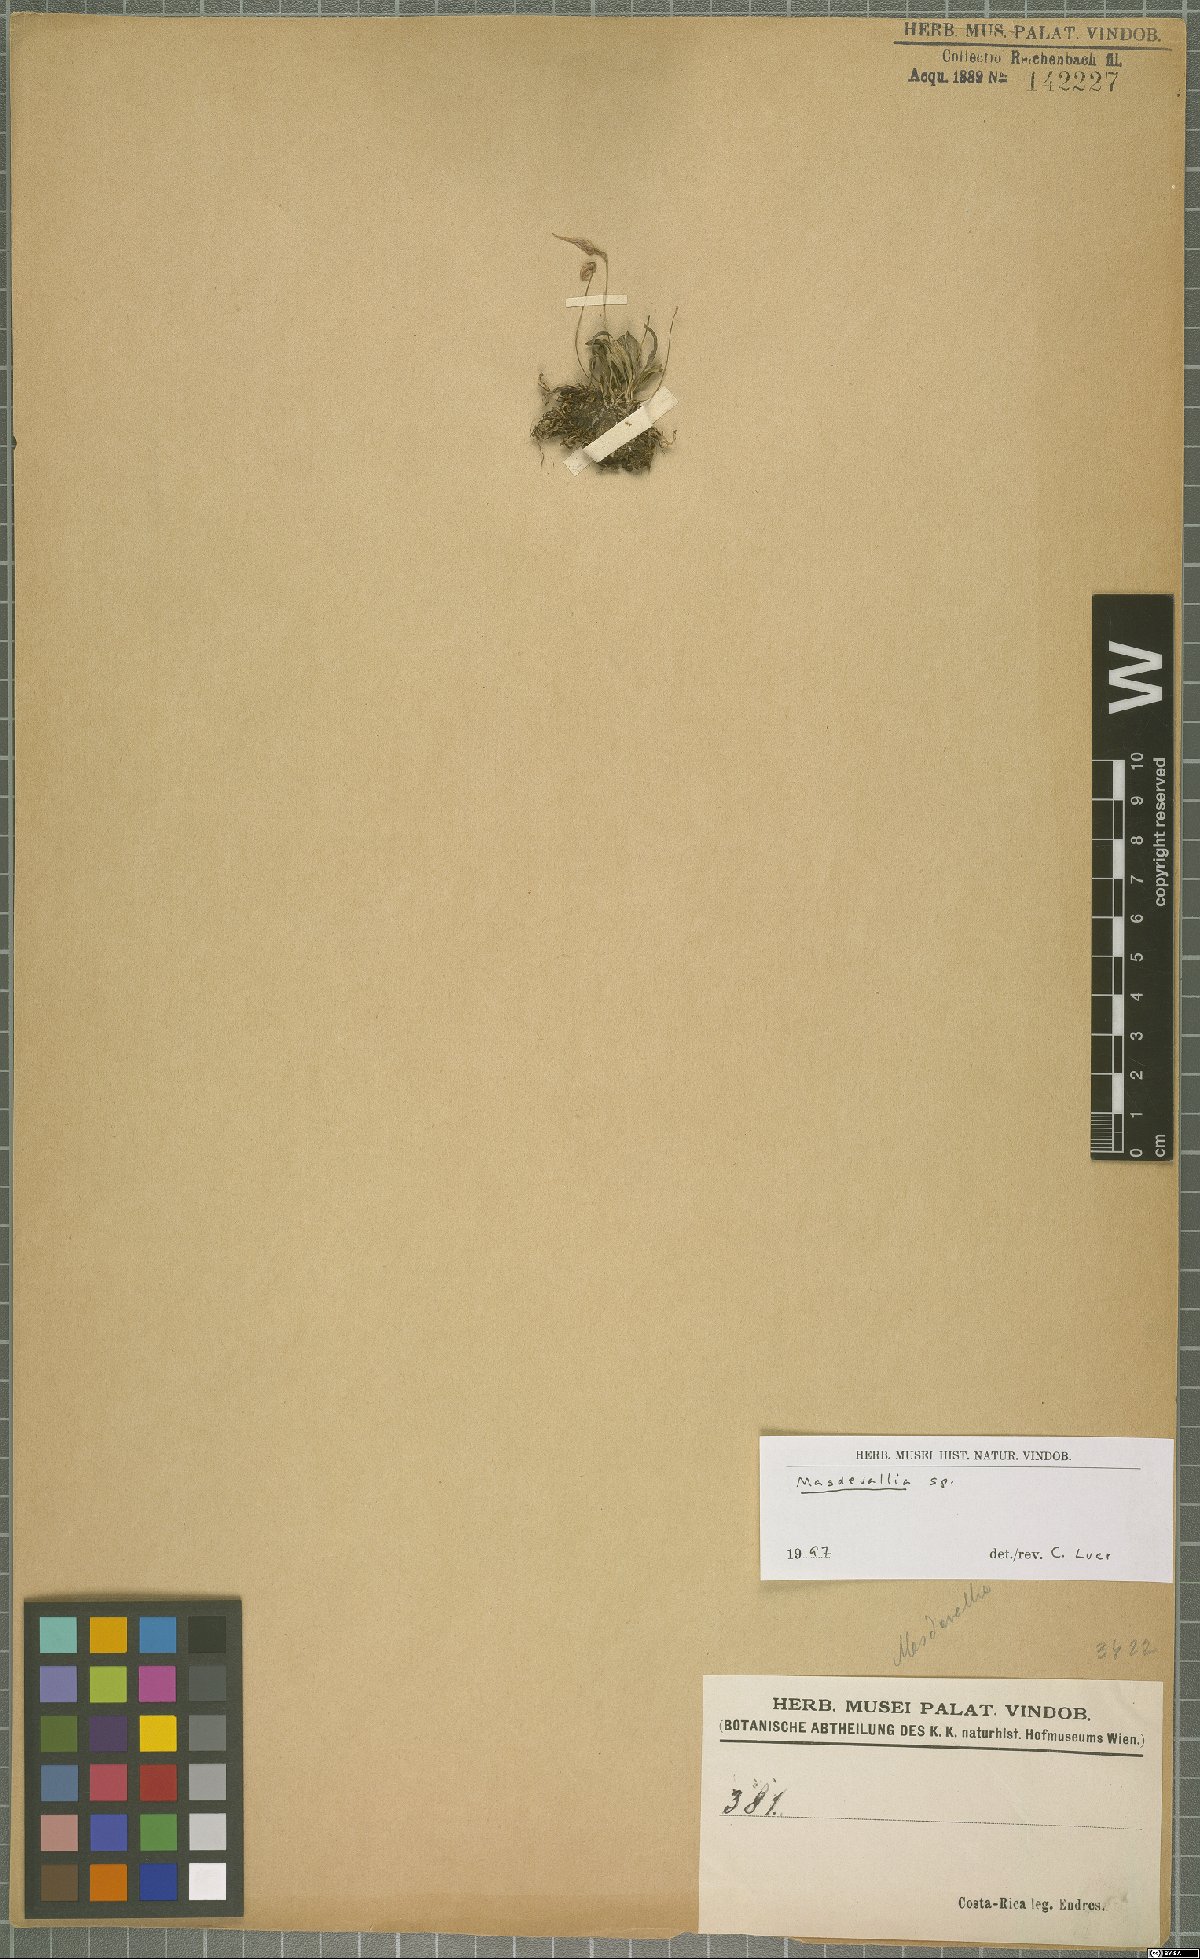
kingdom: Plantae
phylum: Tracheophyta
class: Liliopsida
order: Asparagales
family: Orchidaceae
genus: Masdevallia
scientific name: Masdevallia
